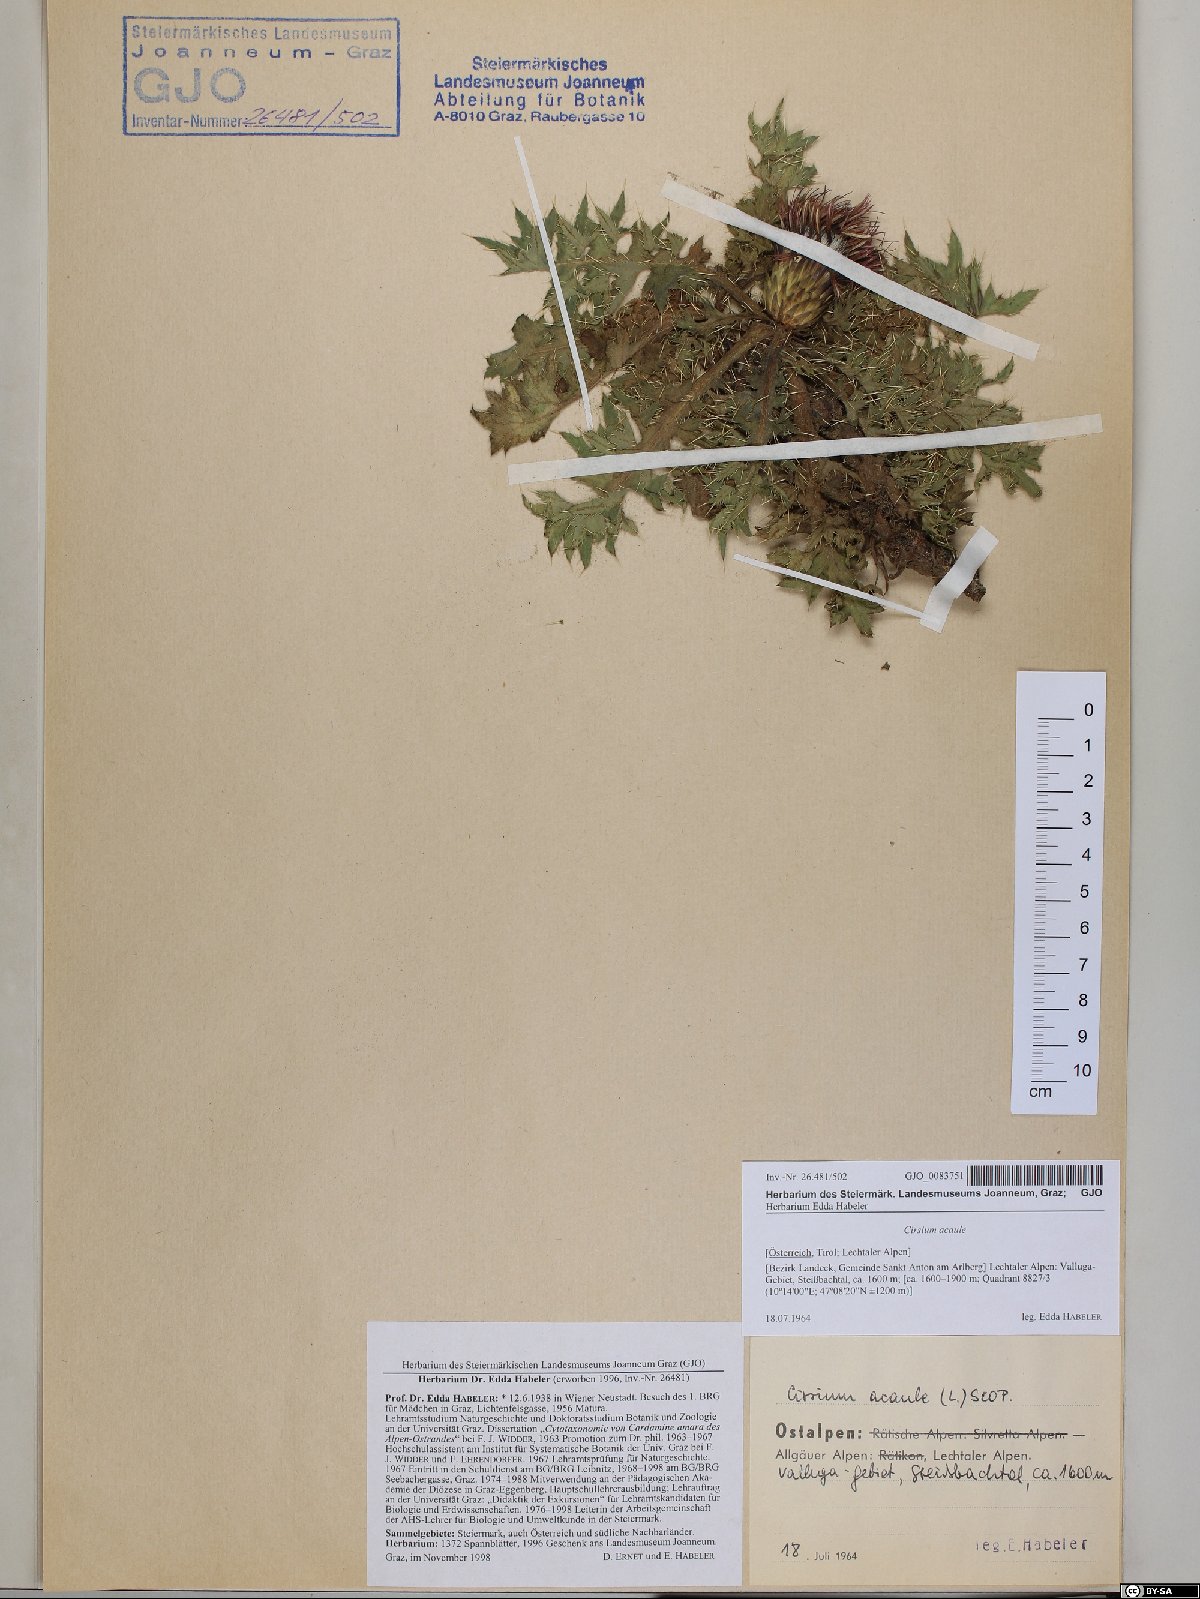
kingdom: Plantae
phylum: Tracheophyta
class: Magnoliopsida
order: Asterales
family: Asteraceae
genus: Cirsium
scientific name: Cirsium acaulon
